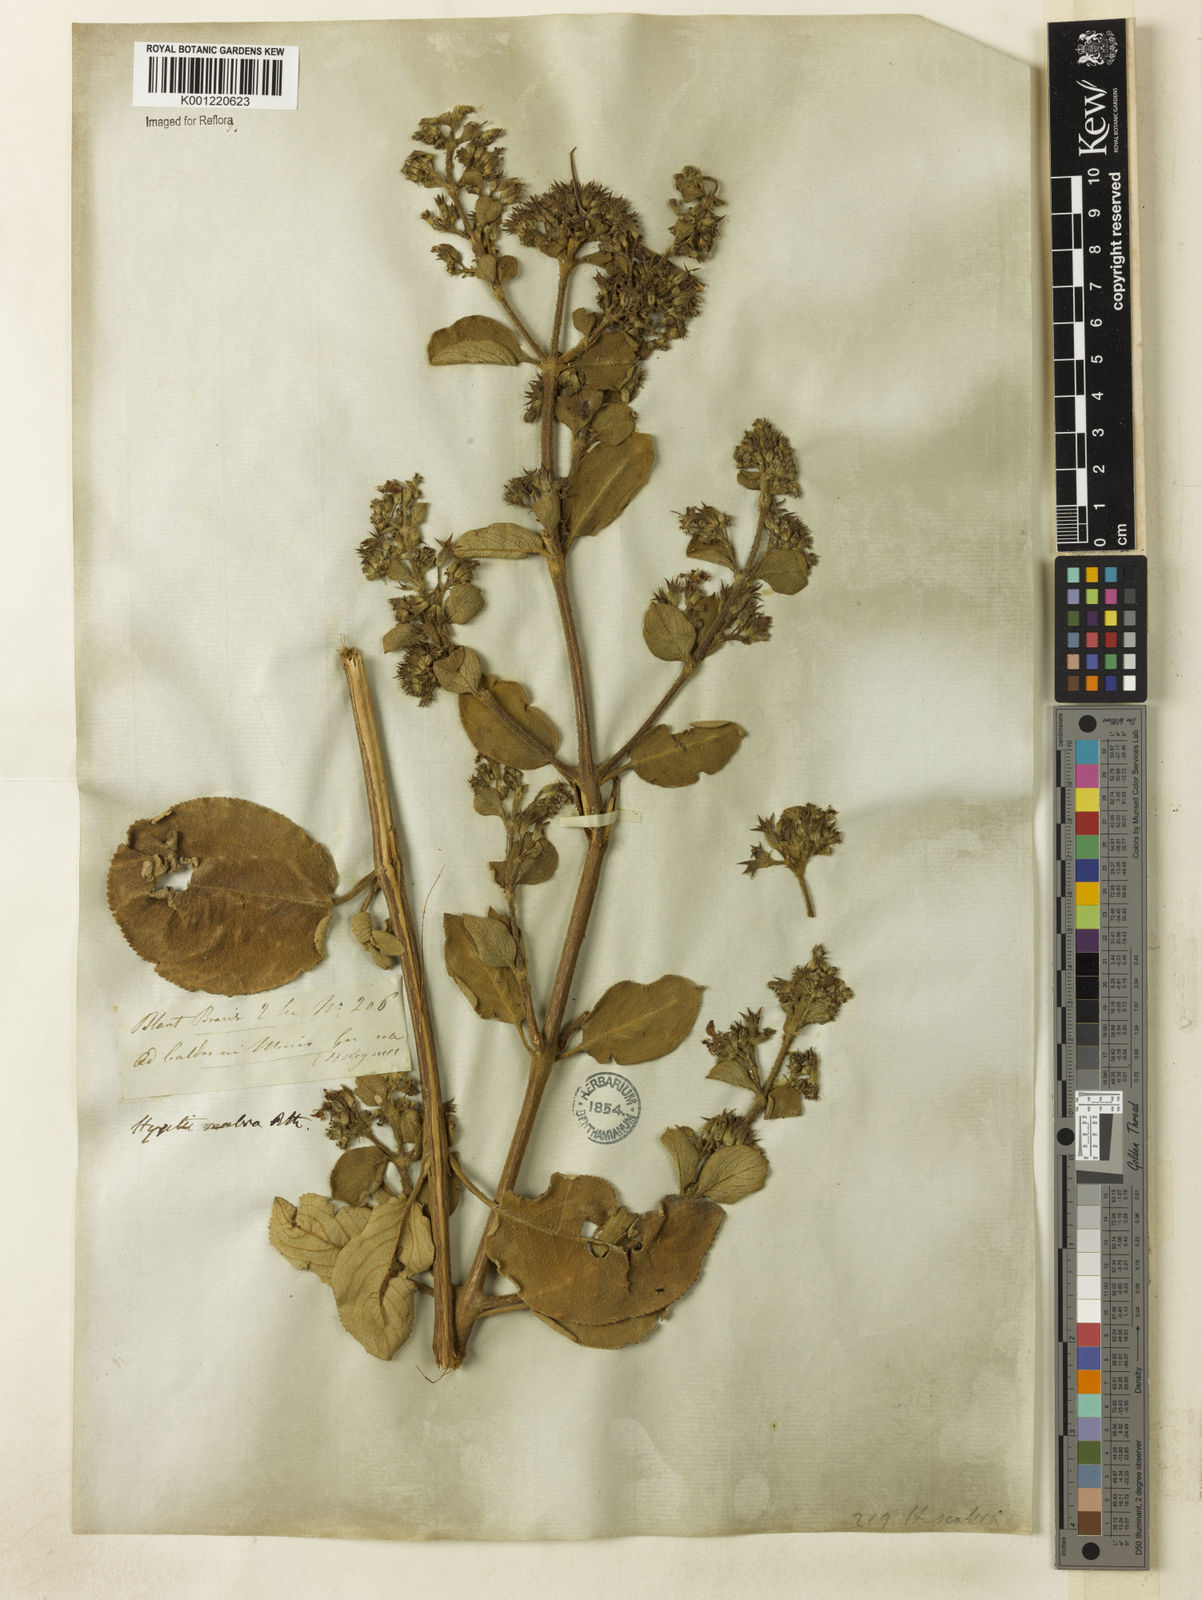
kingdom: Plantae
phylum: Tracheophyta
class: Magnoliopsida
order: Lamiales
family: Lamiaceae
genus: Hyptidendron
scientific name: Hyptidendron canum
